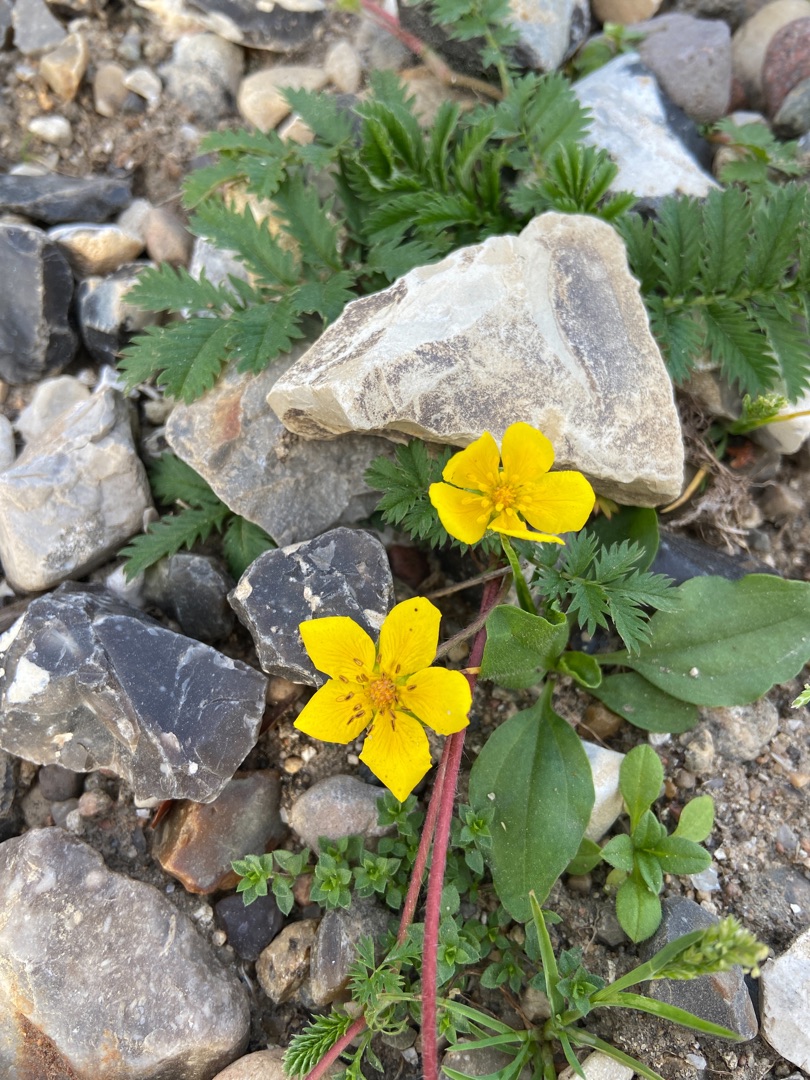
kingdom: Plantae
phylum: Tracheophyta
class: Magnoliopsida
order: Rosales
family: Rosaceae
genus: Argentina
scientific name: Argentina anserina
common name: Gåsepotentil
